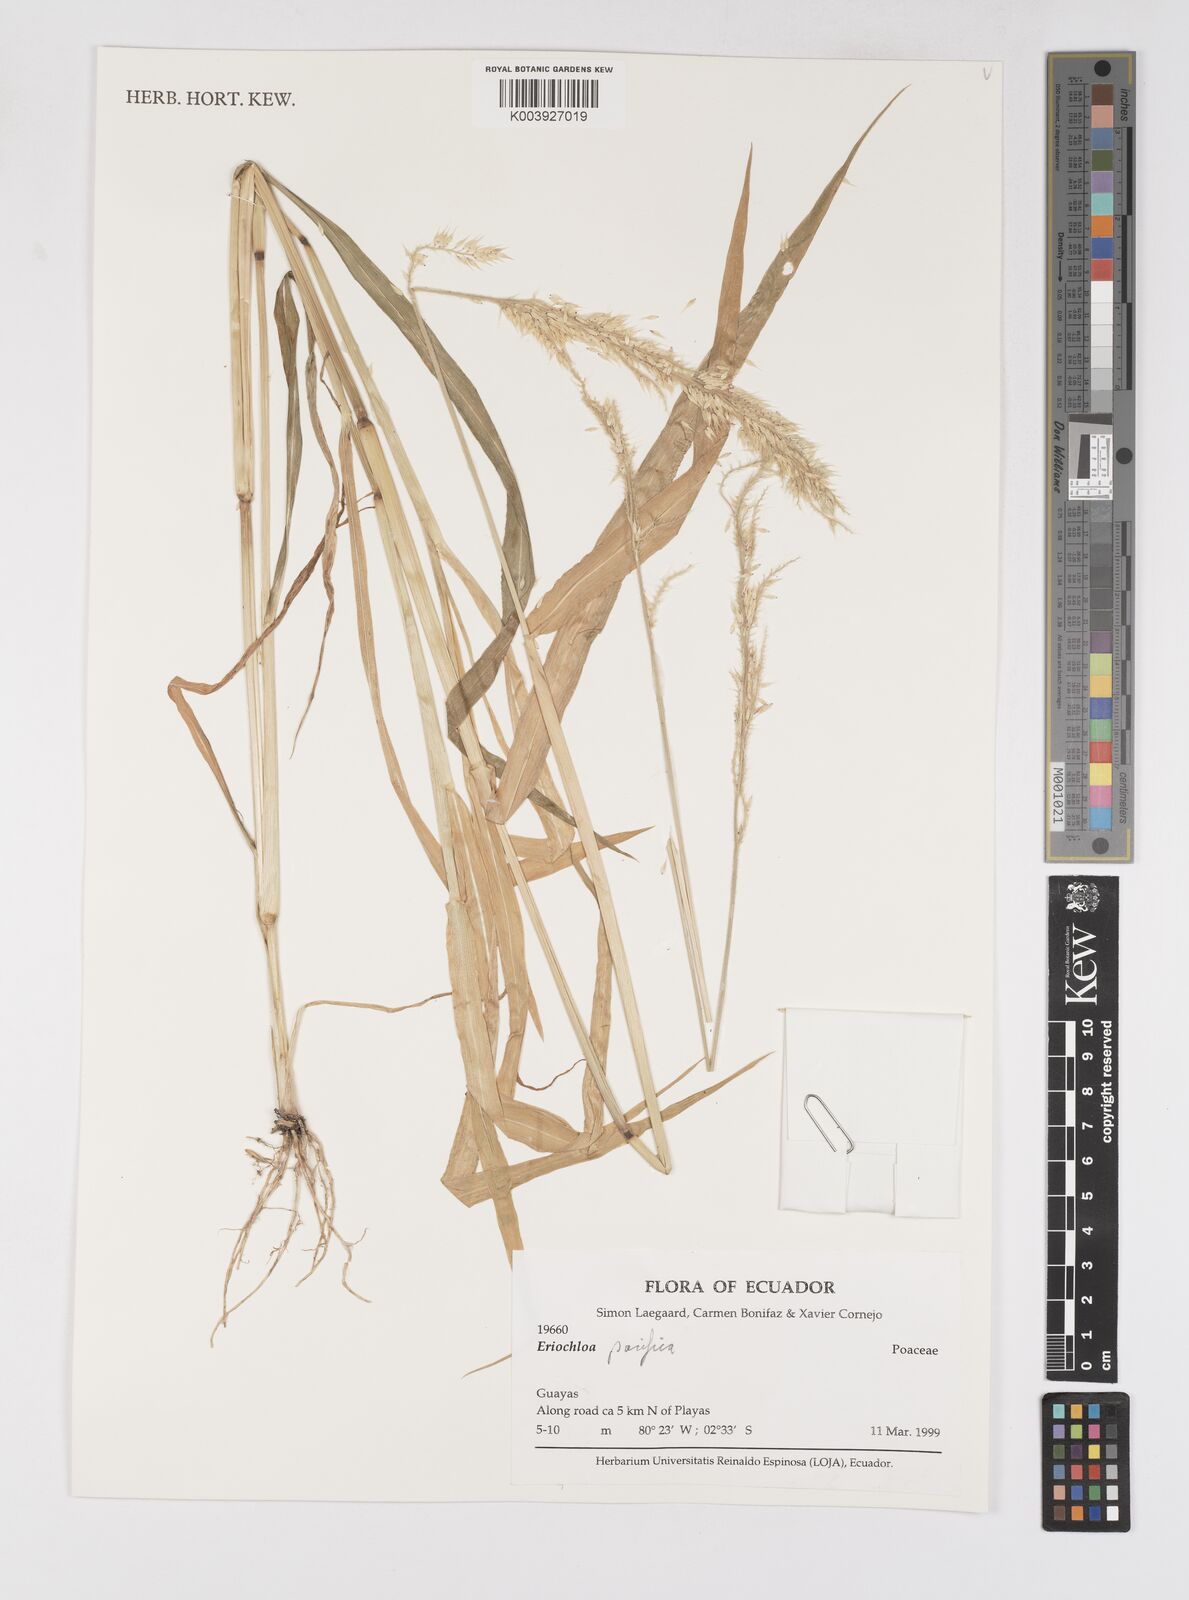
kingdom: Plantae
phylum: Tracheophyta
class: Liliopsida
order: Poales
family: Poaceae
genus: Eriochloa
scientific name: Eriochloa pacifica
